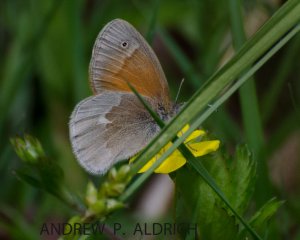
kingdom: Animalia
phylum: Arthropoda
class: Insecta
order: Lepidoptera
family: Nymphalidae
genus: Coenonympha
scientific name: Coenonympha tullia
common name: Large Heath
